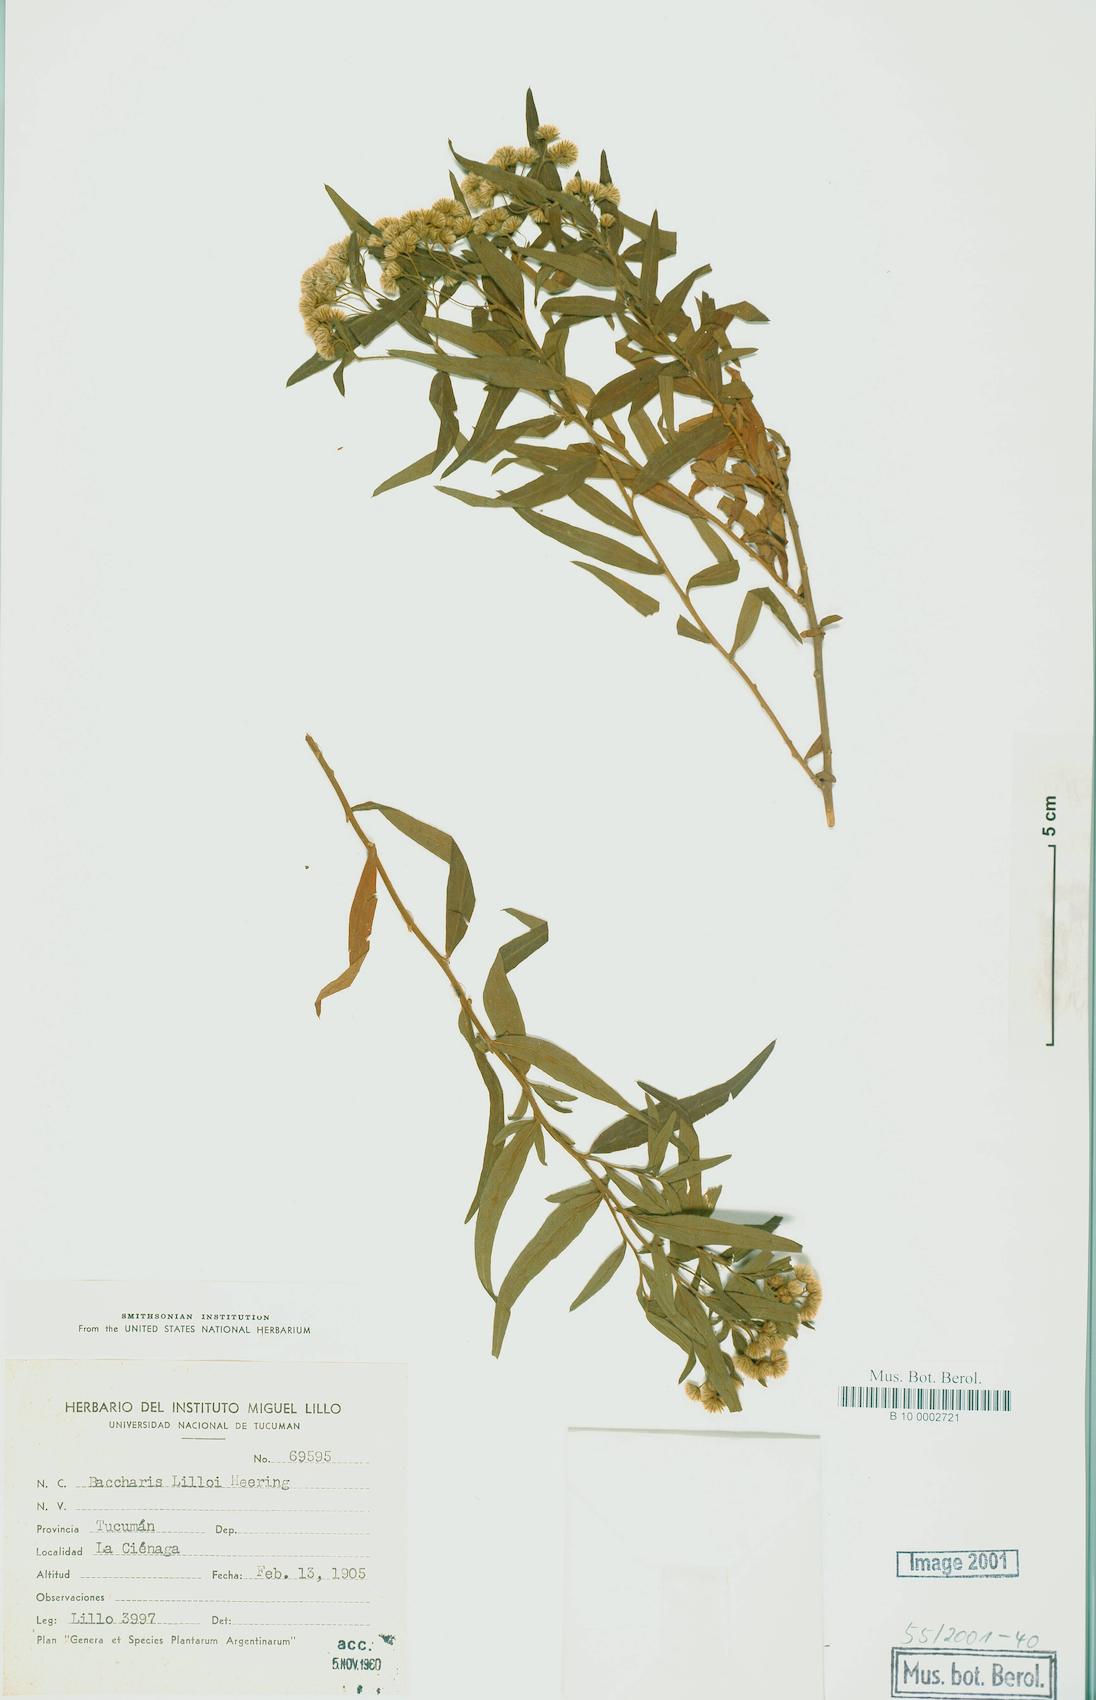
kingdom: Plantae
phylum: Tracheophyta
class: Magnoliopsida
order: Asterales
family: Asteraceae
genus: Baccharis
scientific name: Baccharis lilloi
